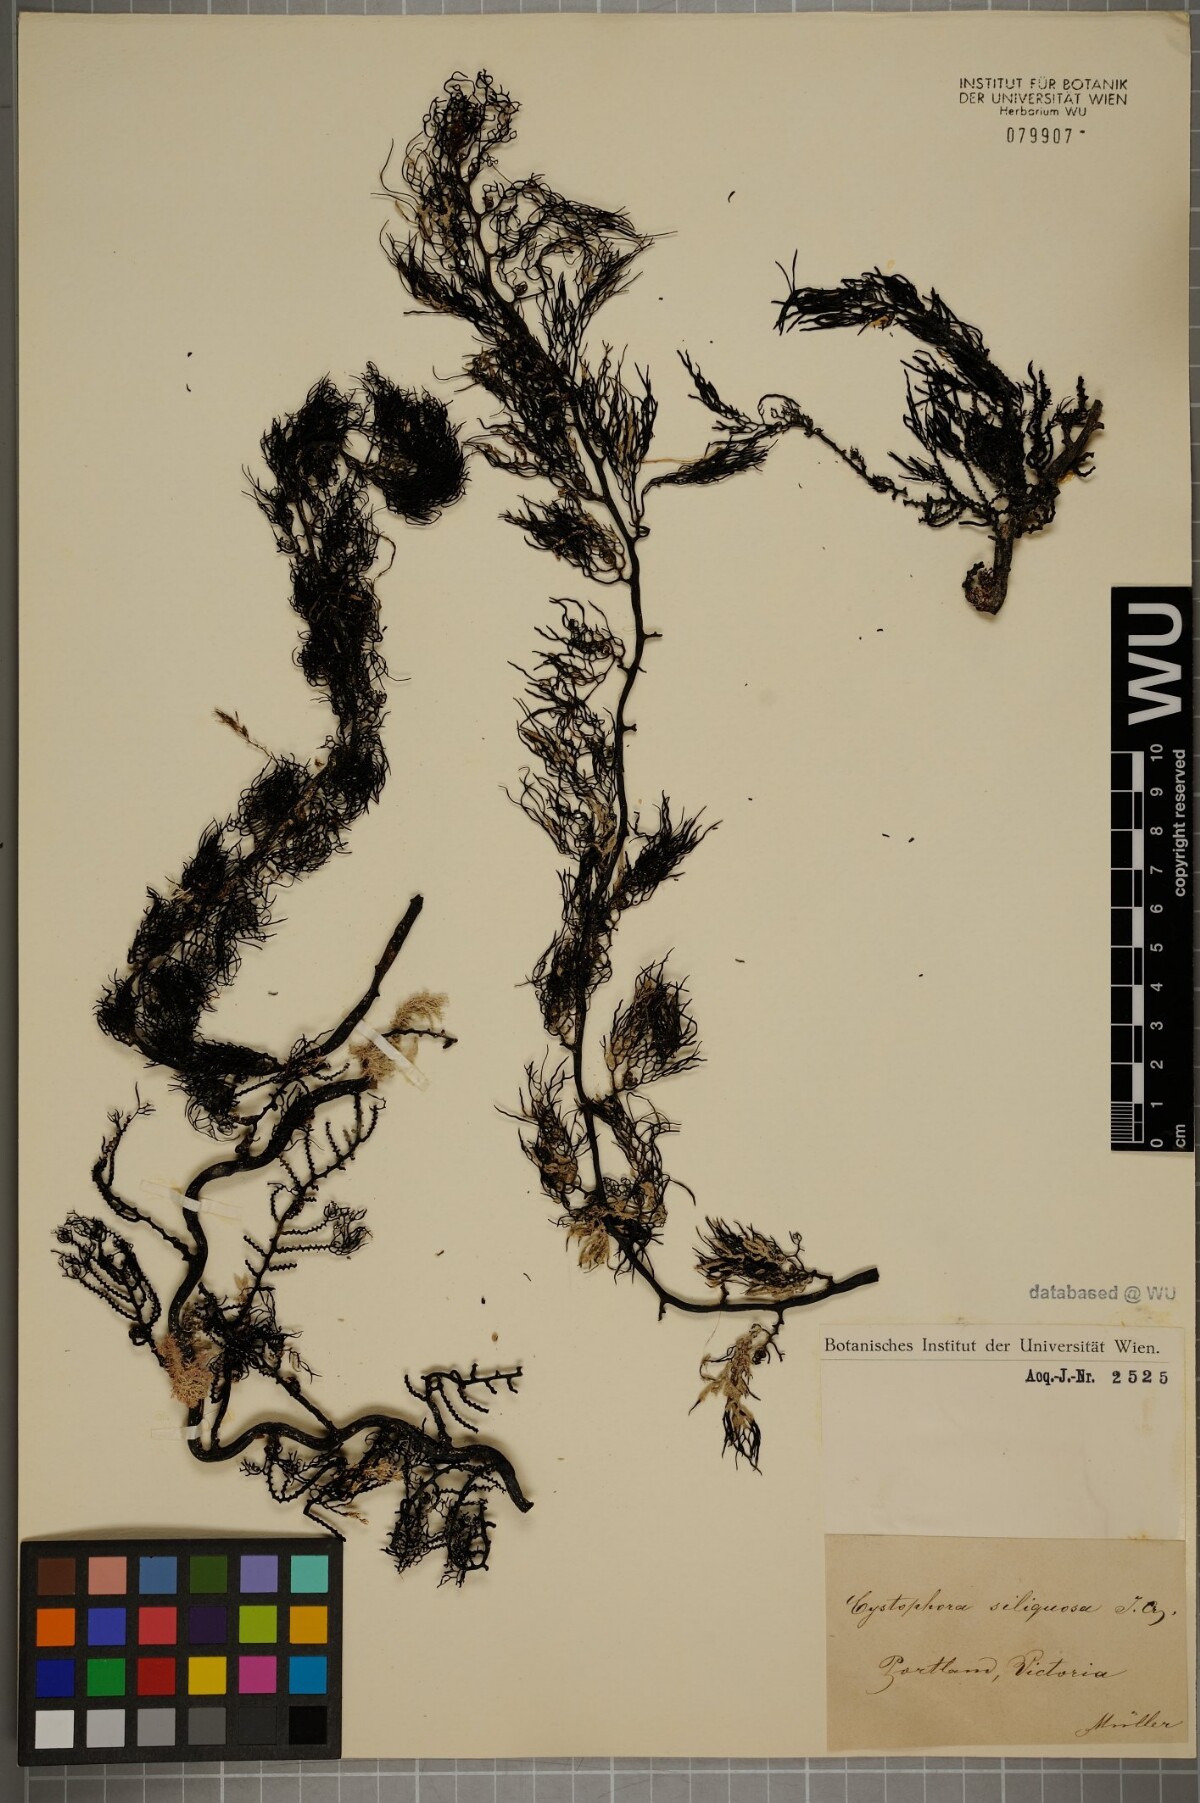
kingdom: Chromista
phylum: Ochrophyta
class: Phaeophyceae
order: Fucales
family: Sargassaceae
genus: Cystophora
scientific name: Cystophora
